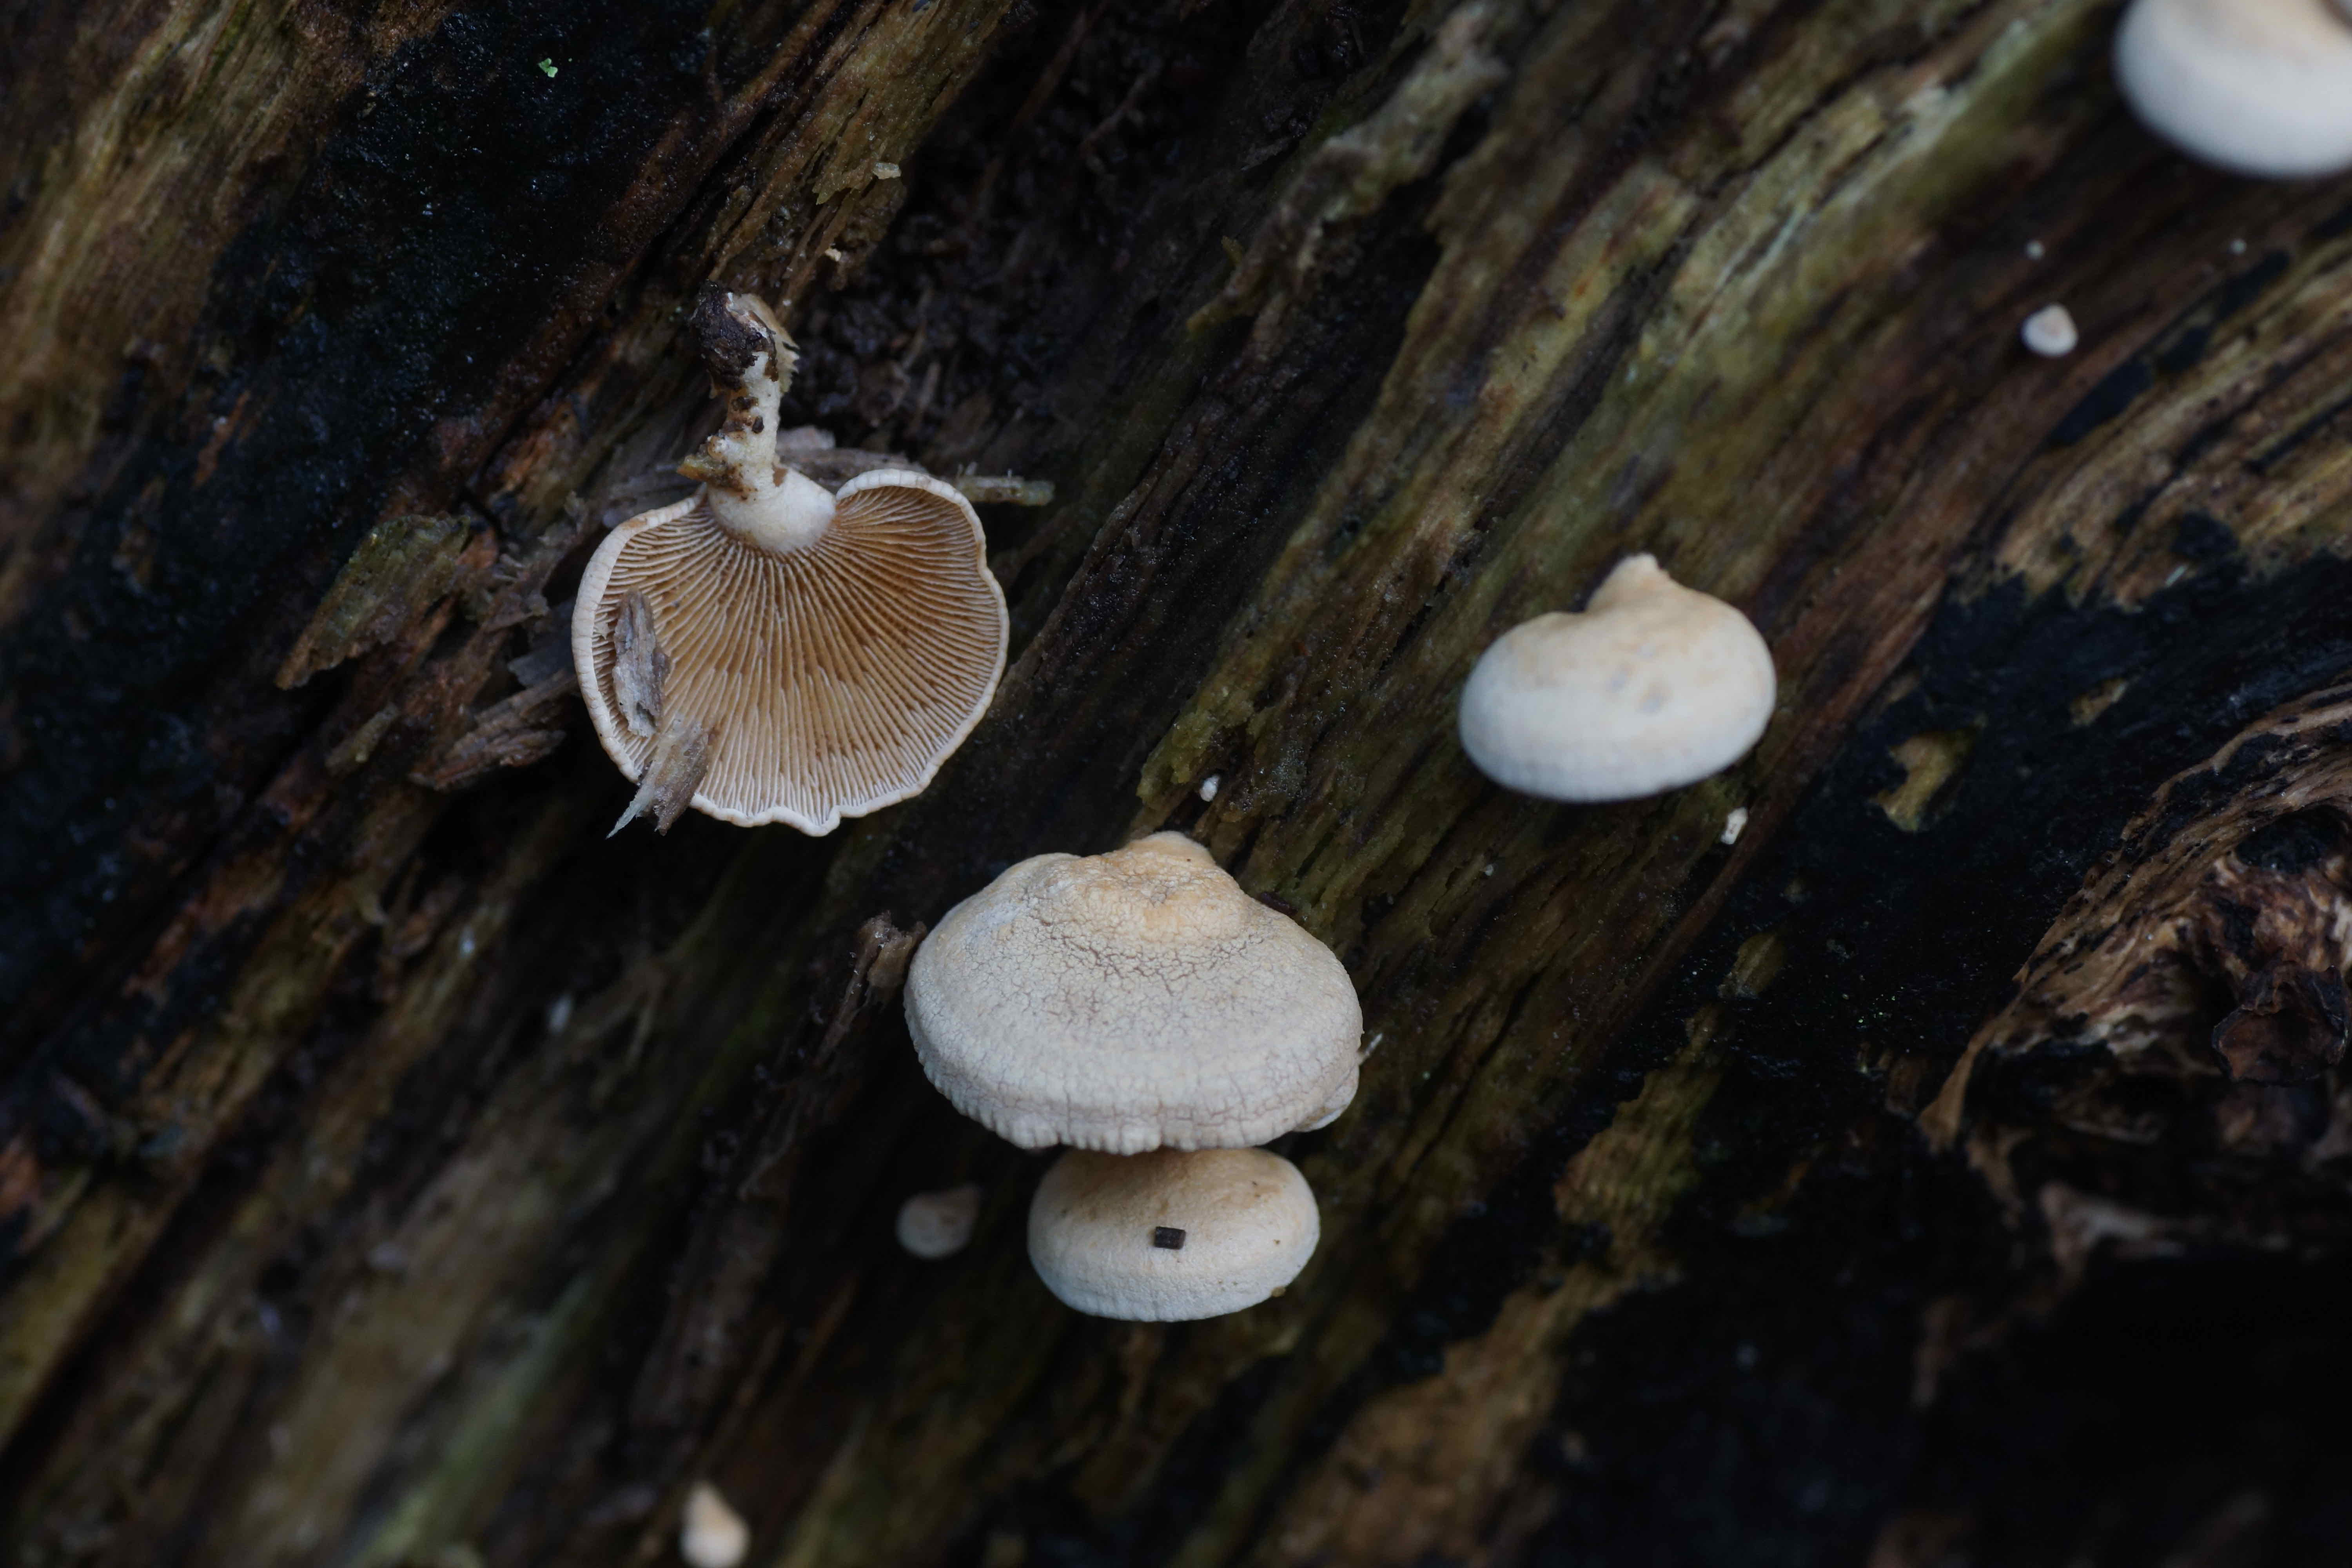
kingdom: Fungi
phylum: Basidiomycota
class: Agaricomycetes
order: Agaricales
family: Mycenaceae
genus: Panellus
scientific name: Panellus stipticus
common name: kliddet epaulethat
